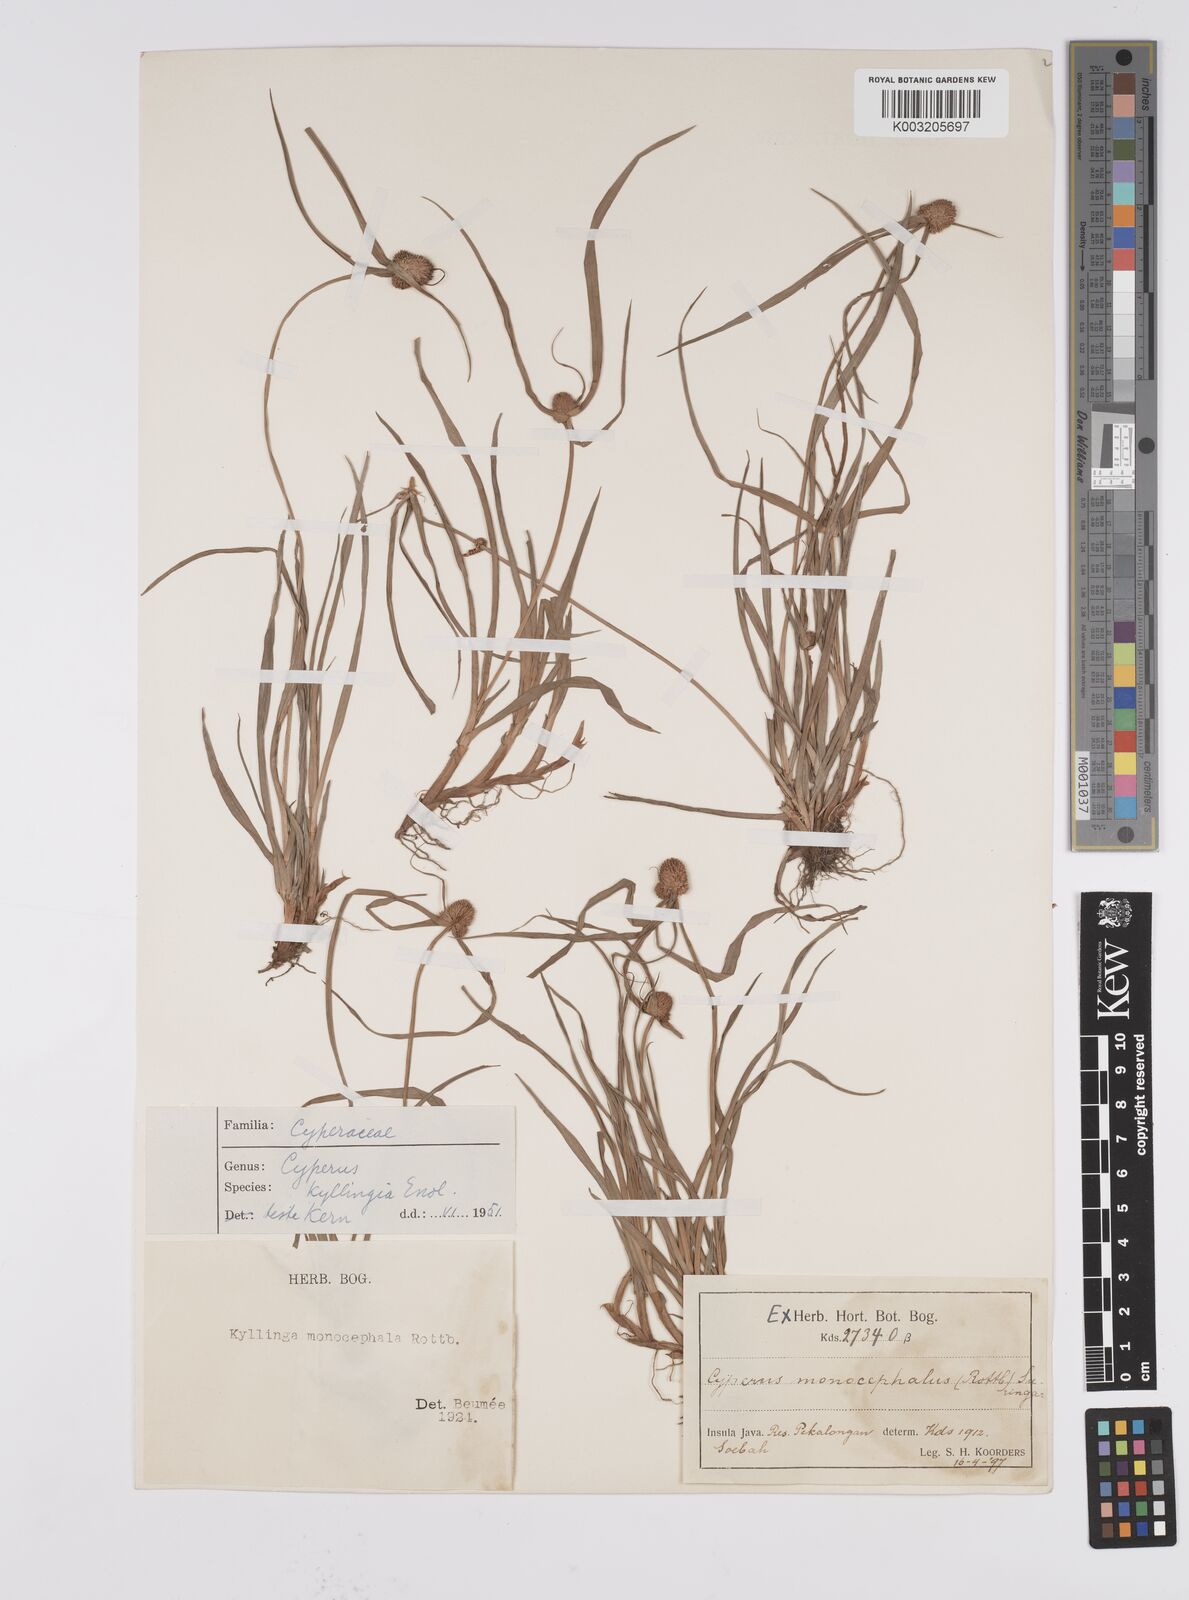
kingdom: Plantae
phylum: Tracheophyta
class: Liliopsida
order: Poales
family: Cyperaceae
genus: Cyperus
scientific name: Cyperus nemoralis
